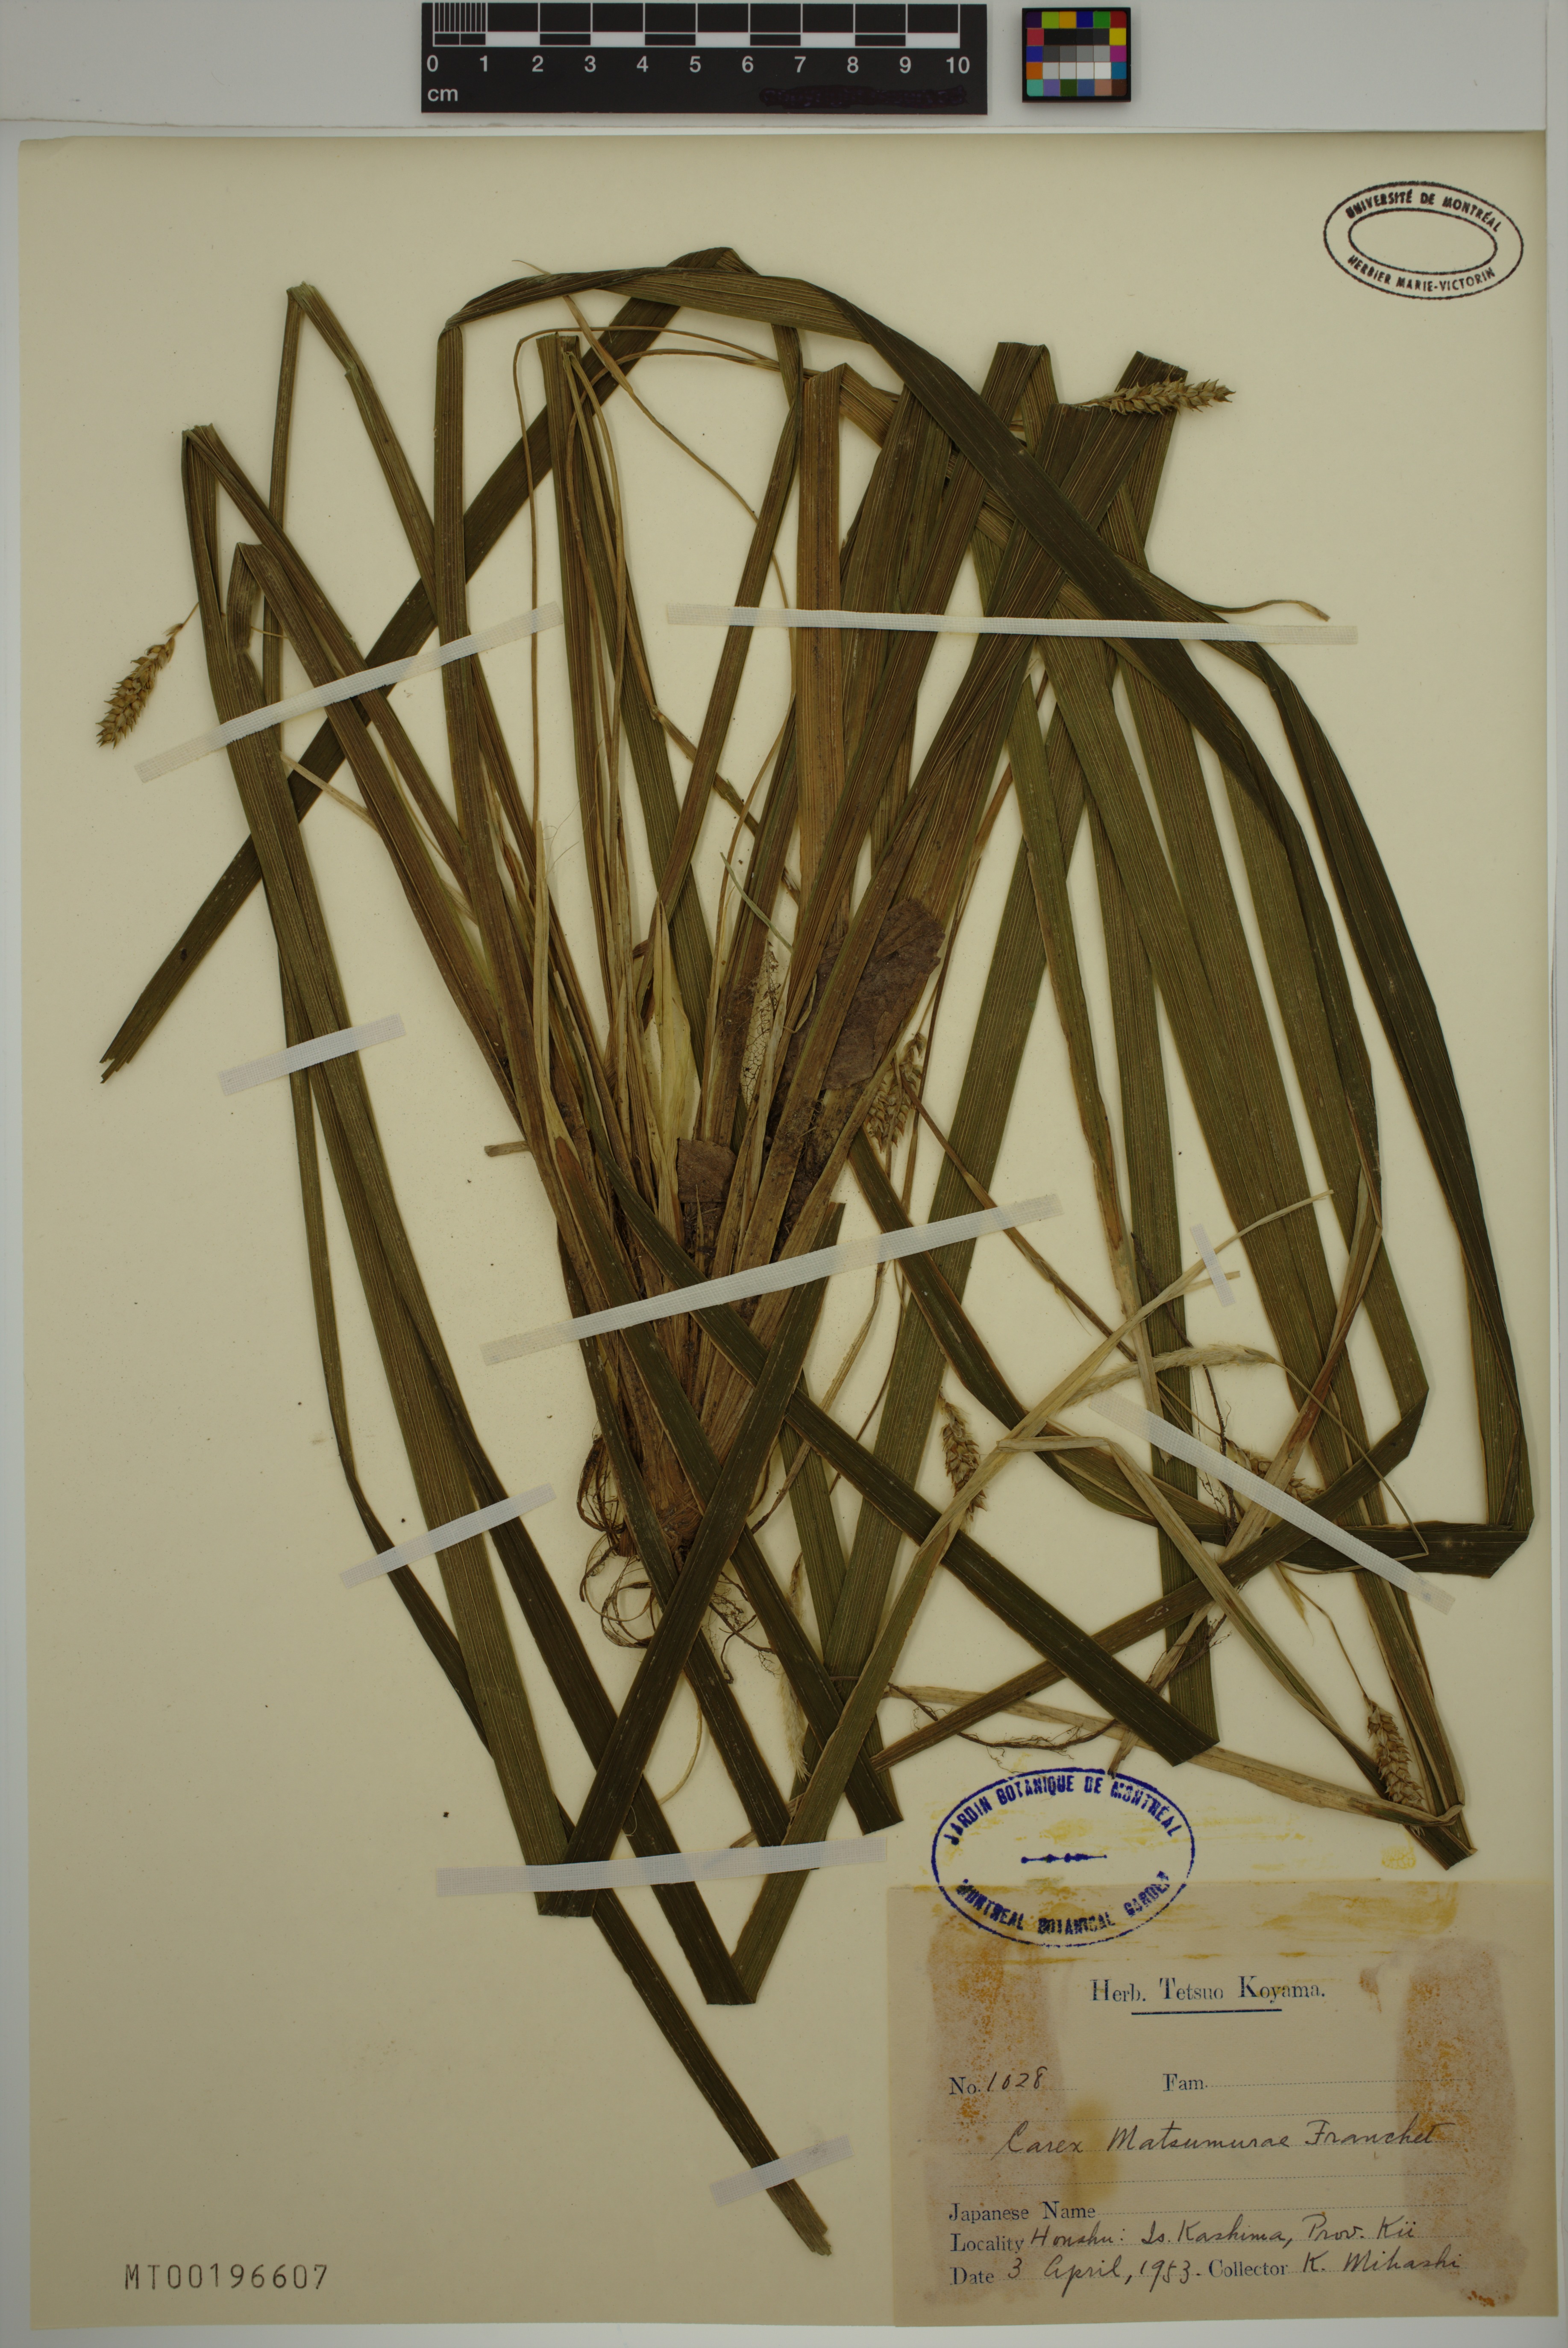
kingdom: Plantae
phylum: Tracheophyta
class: Liliopsida
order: Poales
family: Cyperaceae
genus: Carex
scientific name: Carex matsumurae
